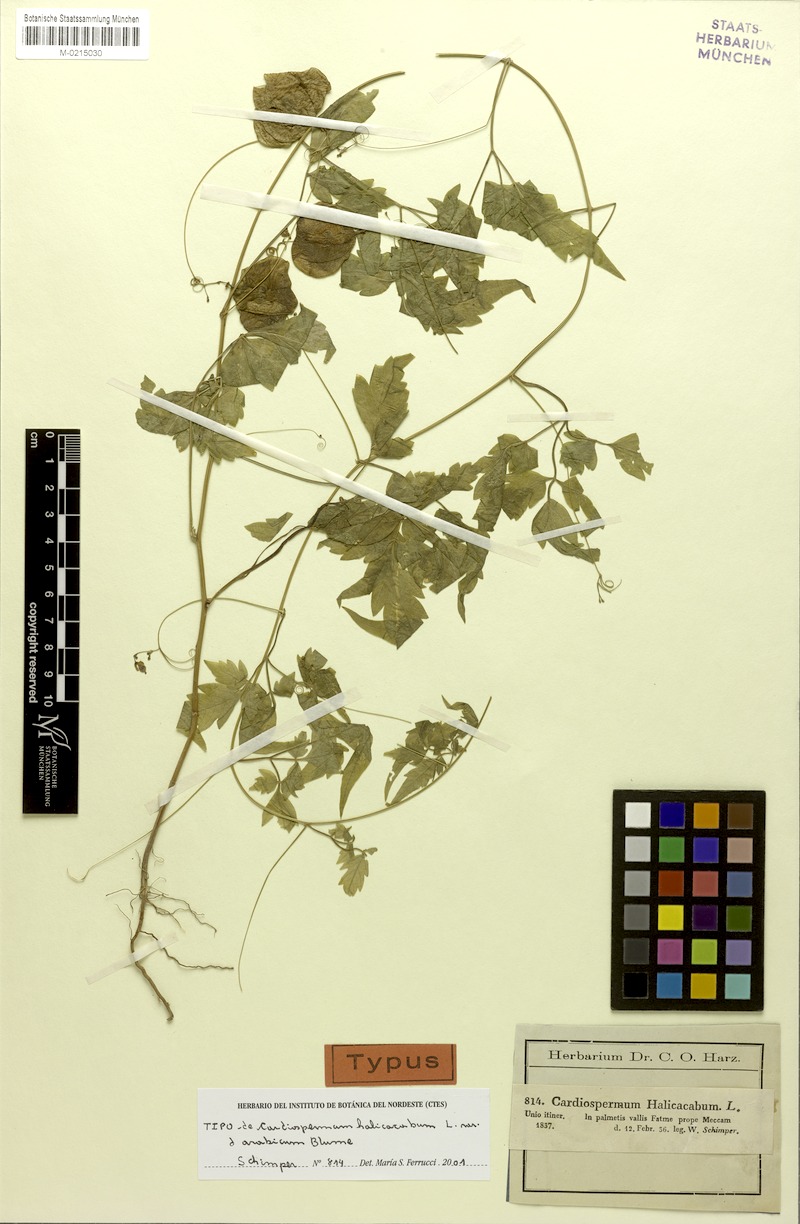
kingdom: Plantae
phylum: Tracheophyta
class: Magnoliopsida
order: Sapindales
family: Sapindaceae
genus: Cardiospermum
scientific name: Cardiospermum halicacabum
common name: Balloon vine
